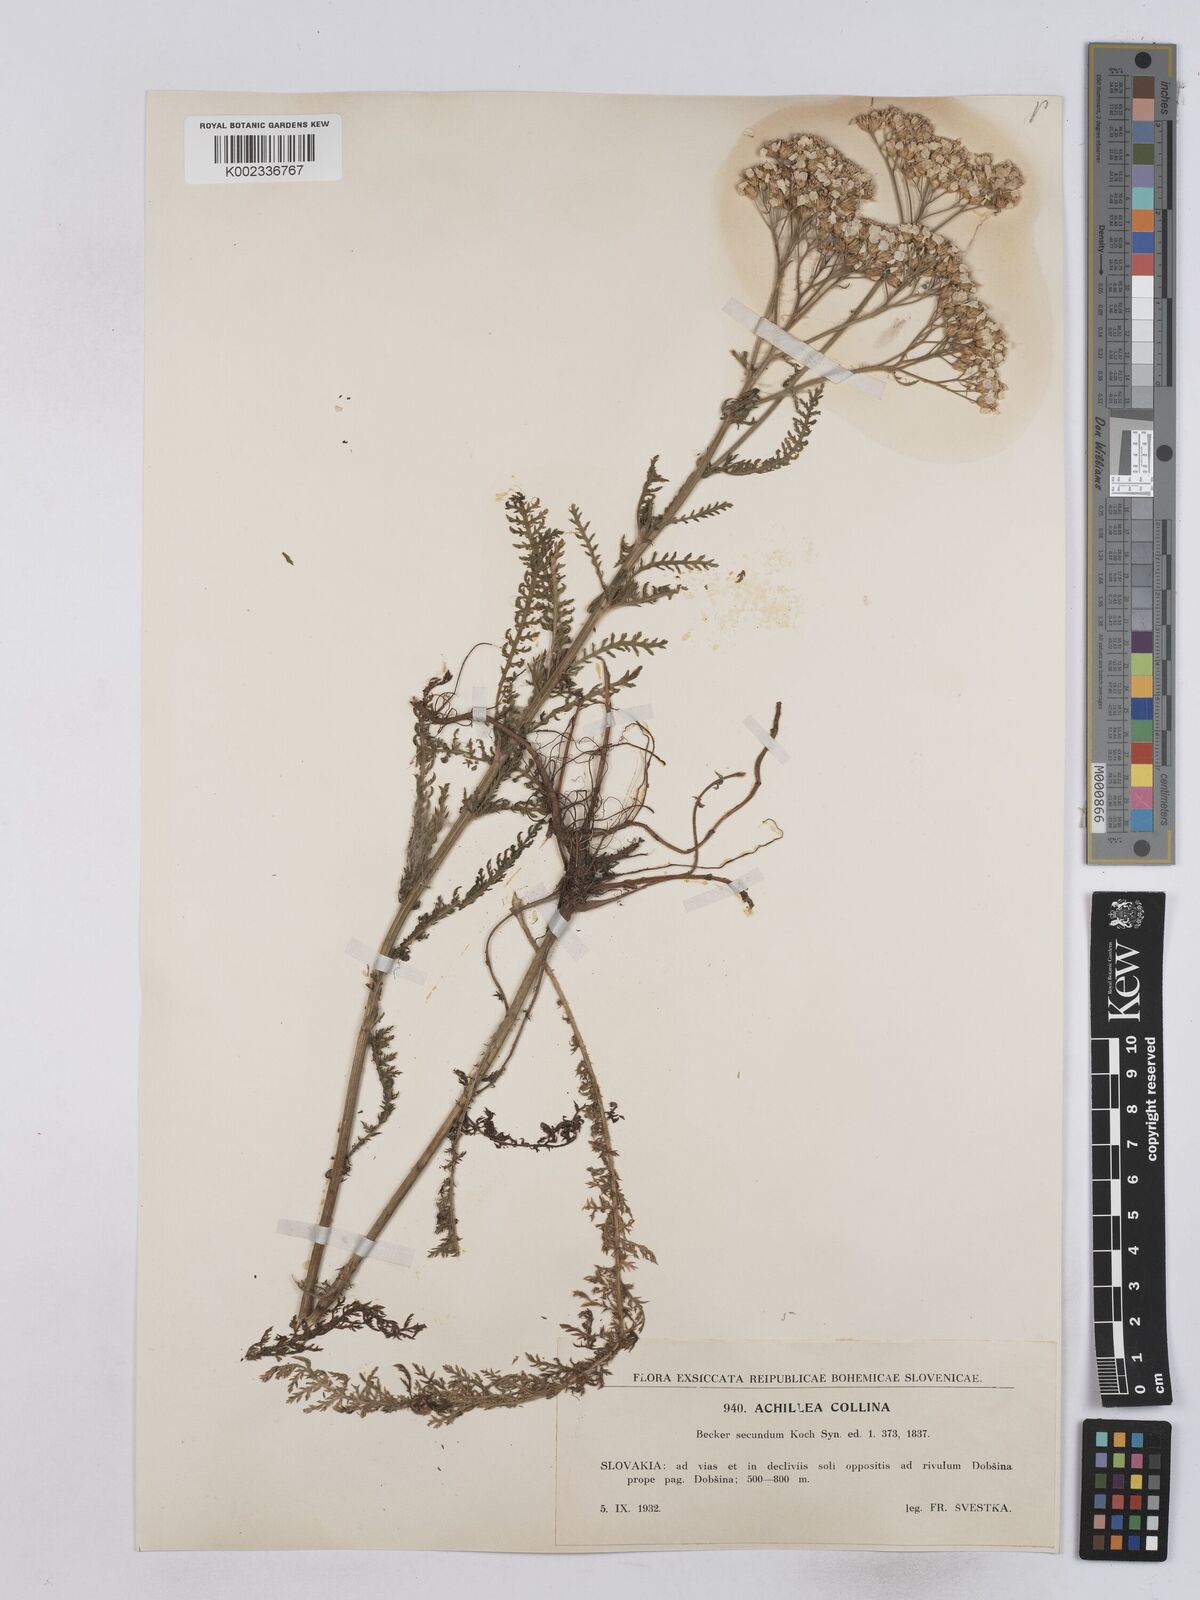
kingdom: Plantae
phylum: Tracheophyta
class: Magnoliopsida
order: Asterales
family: Asteraceae
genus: Achillea
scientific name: Achillea collina
